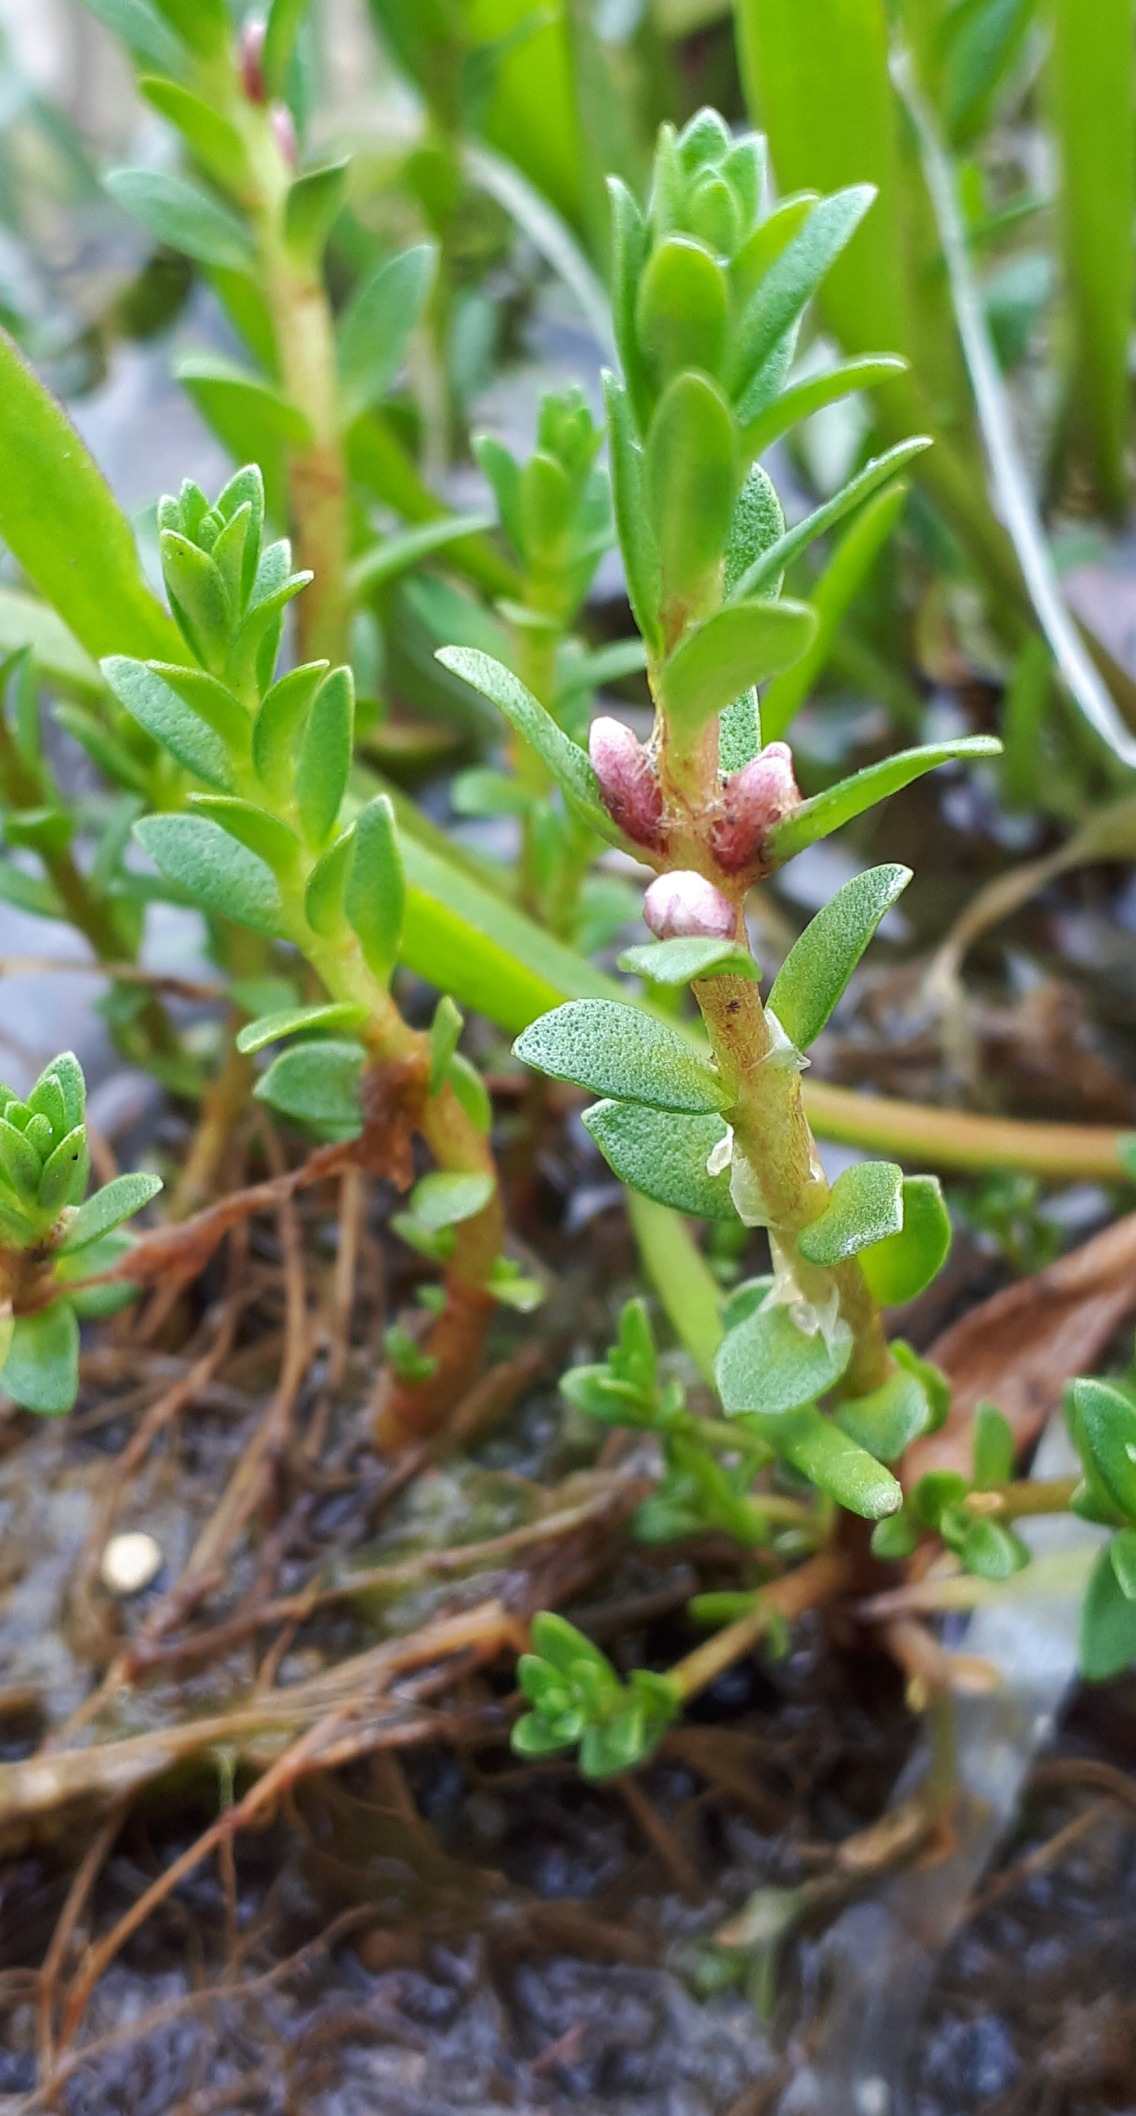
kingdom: Plantae
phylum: Tracheophyta
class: Magnoliopsida
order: Ericales
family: Primulaceae
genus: Lysimachia
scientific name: Lysimachia maritima
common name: Sandkryb
